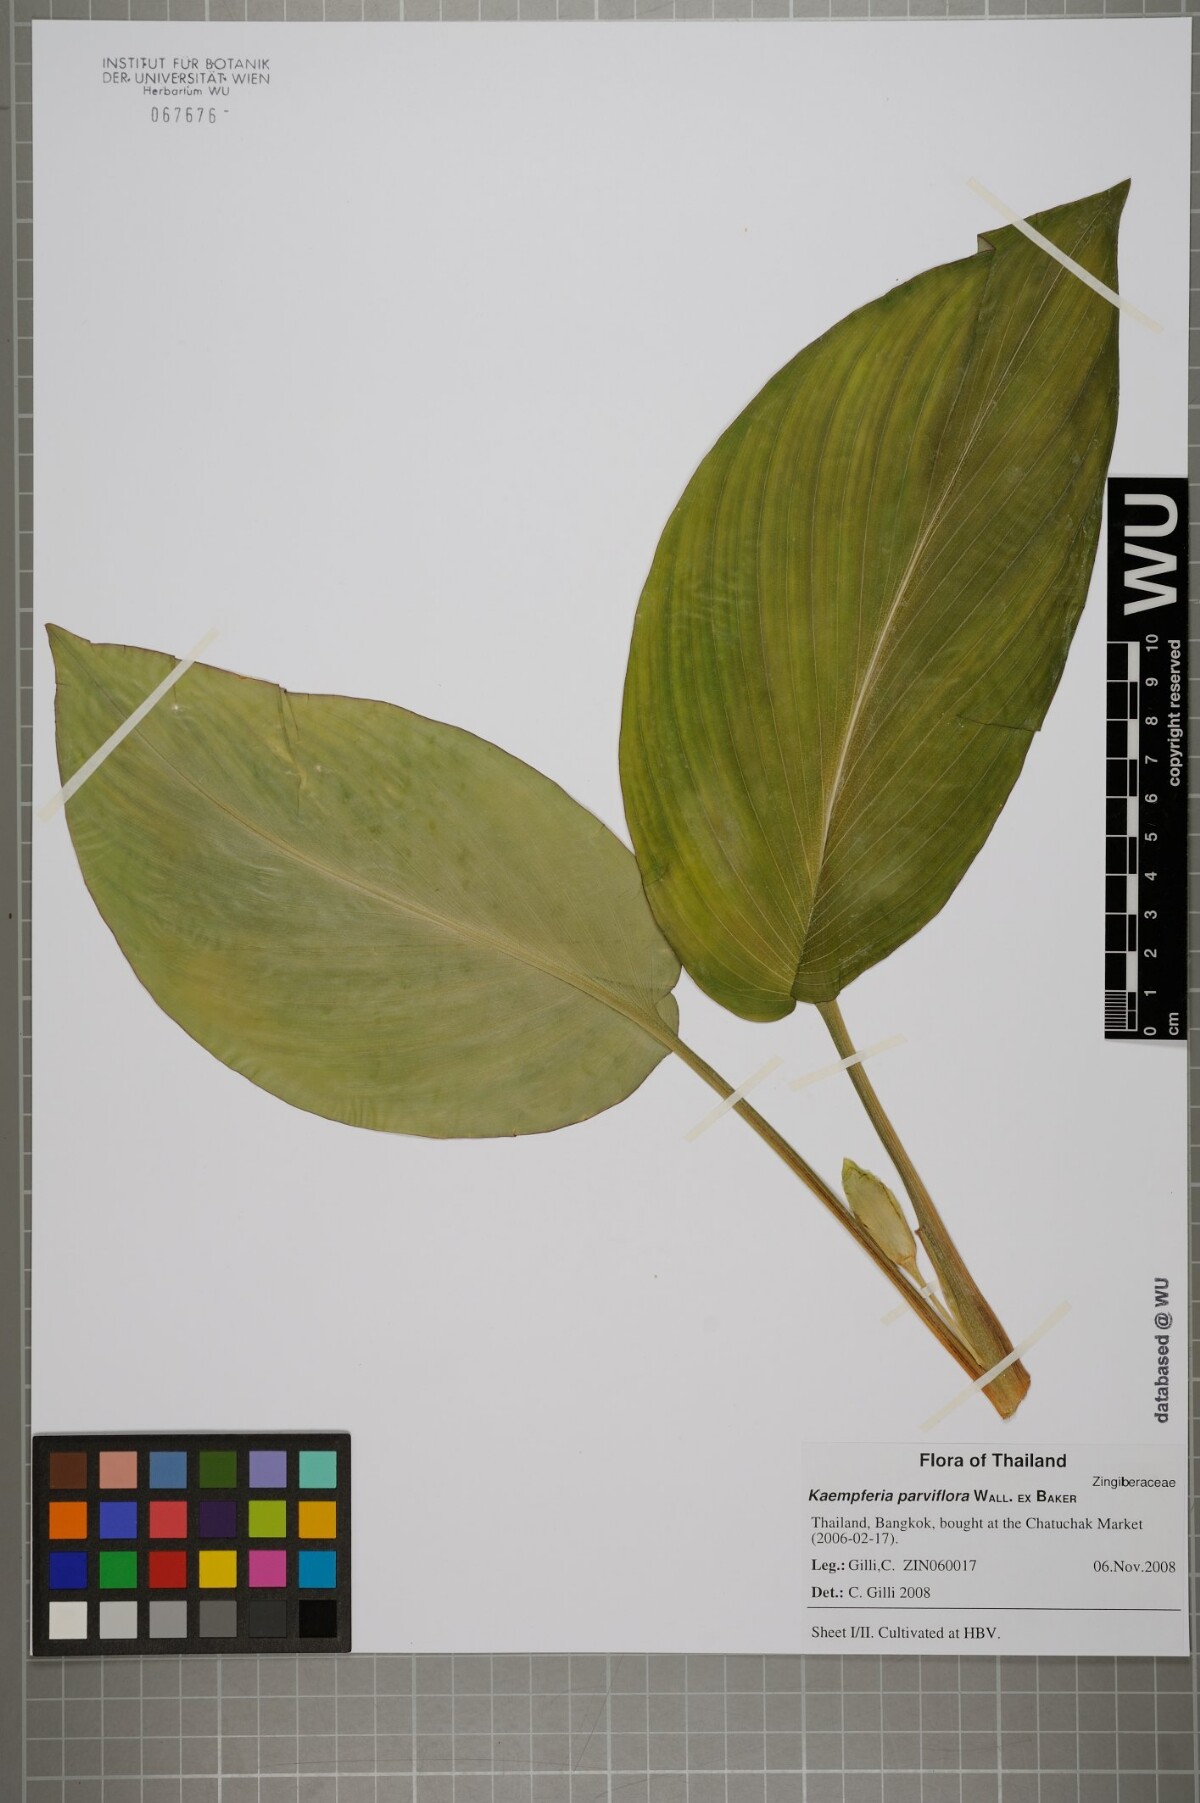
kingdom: Plantae
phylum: Tracheophyta
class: Liliopsida
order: Zingiberales
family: Zingiberaceae
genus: Kaempferia
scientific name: Kaempferia parviflora
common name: Black galingale
